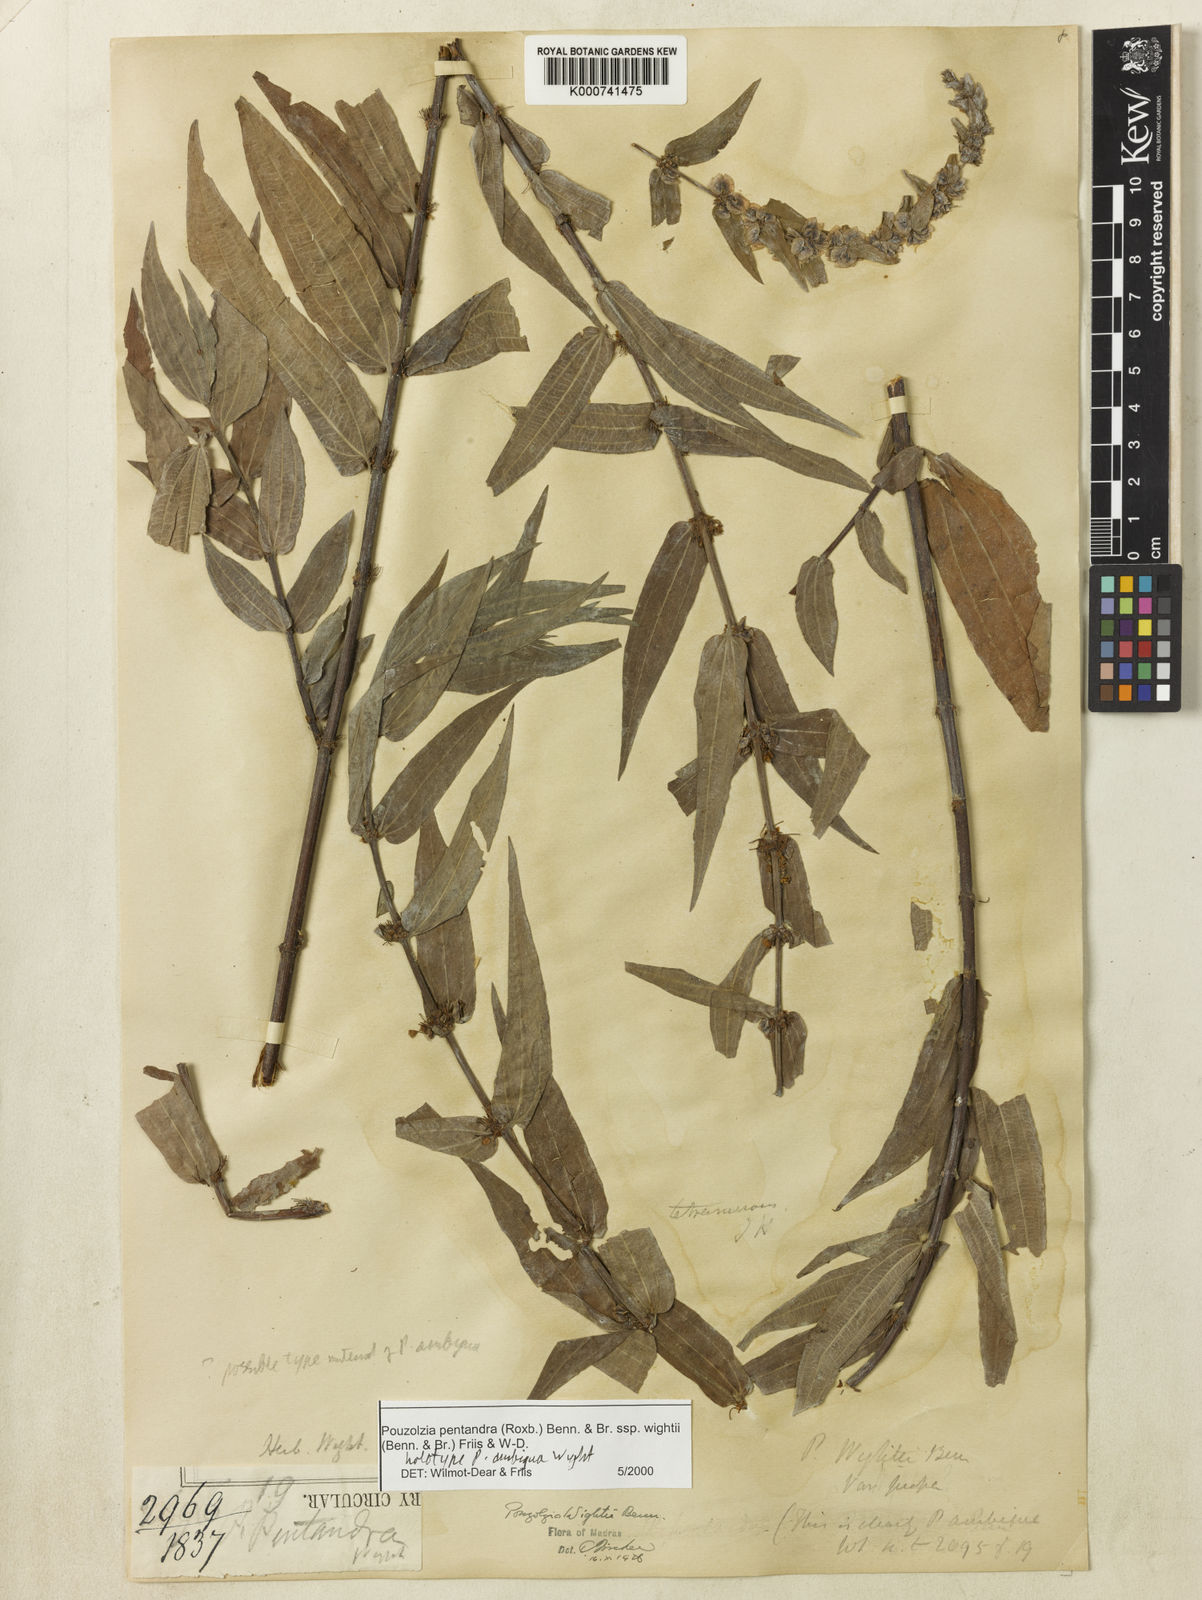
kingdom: Plantae
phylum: Tracheophyta
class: Magnoliopsida
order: Rosales
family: Urticaceae
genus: Gonostegia
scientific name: Gonostegia pentandra
